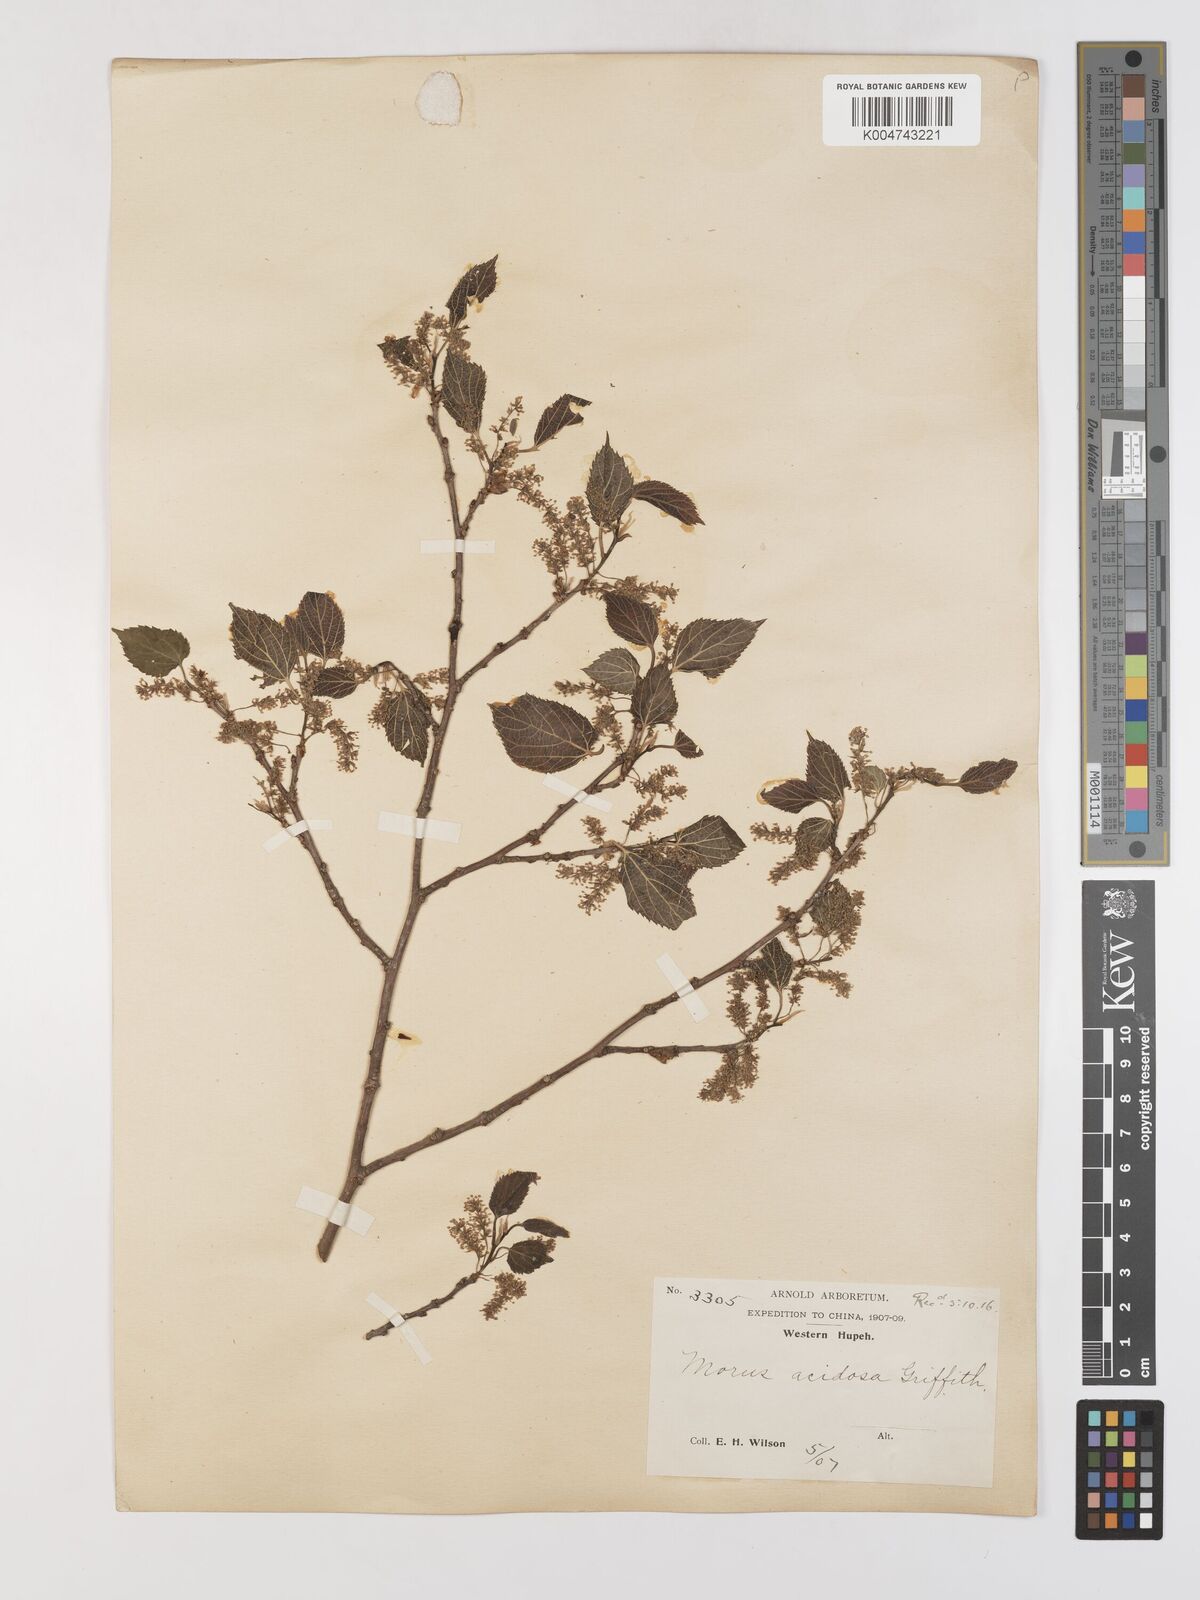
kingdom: Plantae
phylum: Tracheophyta
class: Magnoliopsida
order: Rosales
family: Moraceae
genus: Morus
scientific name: Morus indica
